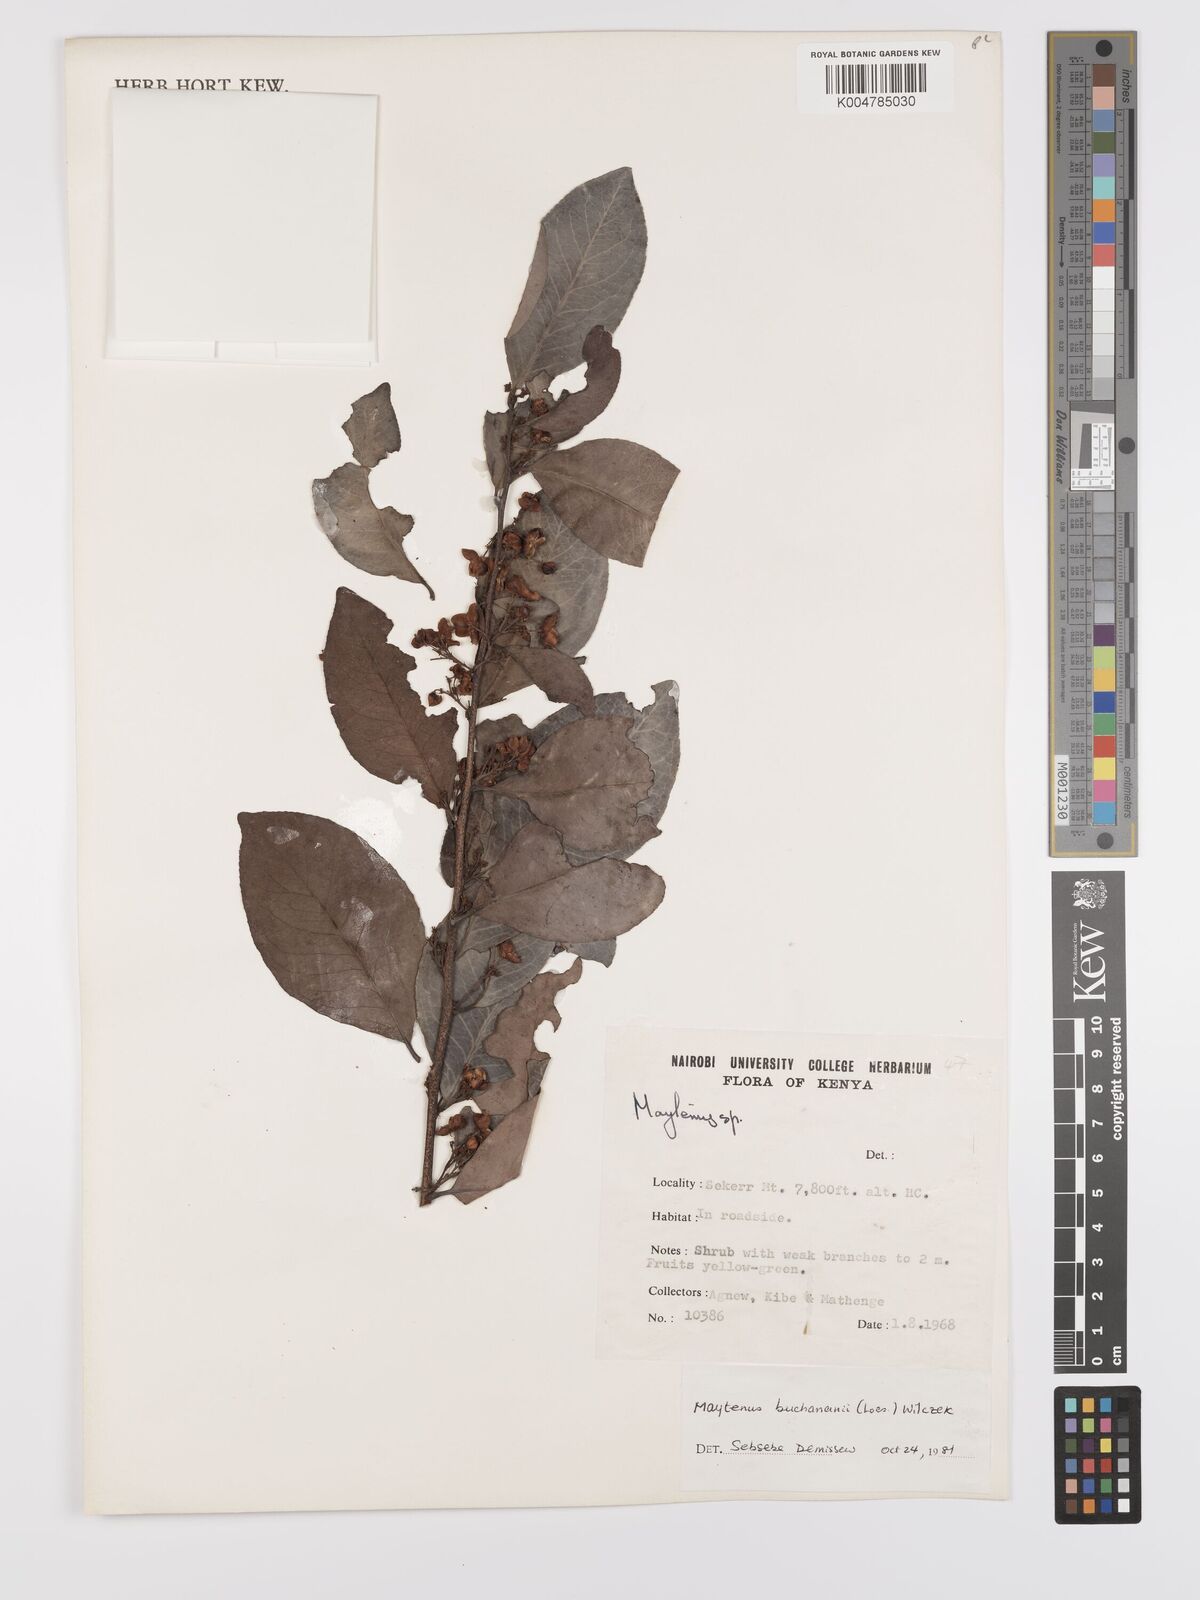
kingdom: Plantae
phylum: Tracheophyta
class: Magnoliopsida
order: Celastrales
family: Celastraceae
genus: Gymnosporia
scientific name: Gymnosporia buchananii
